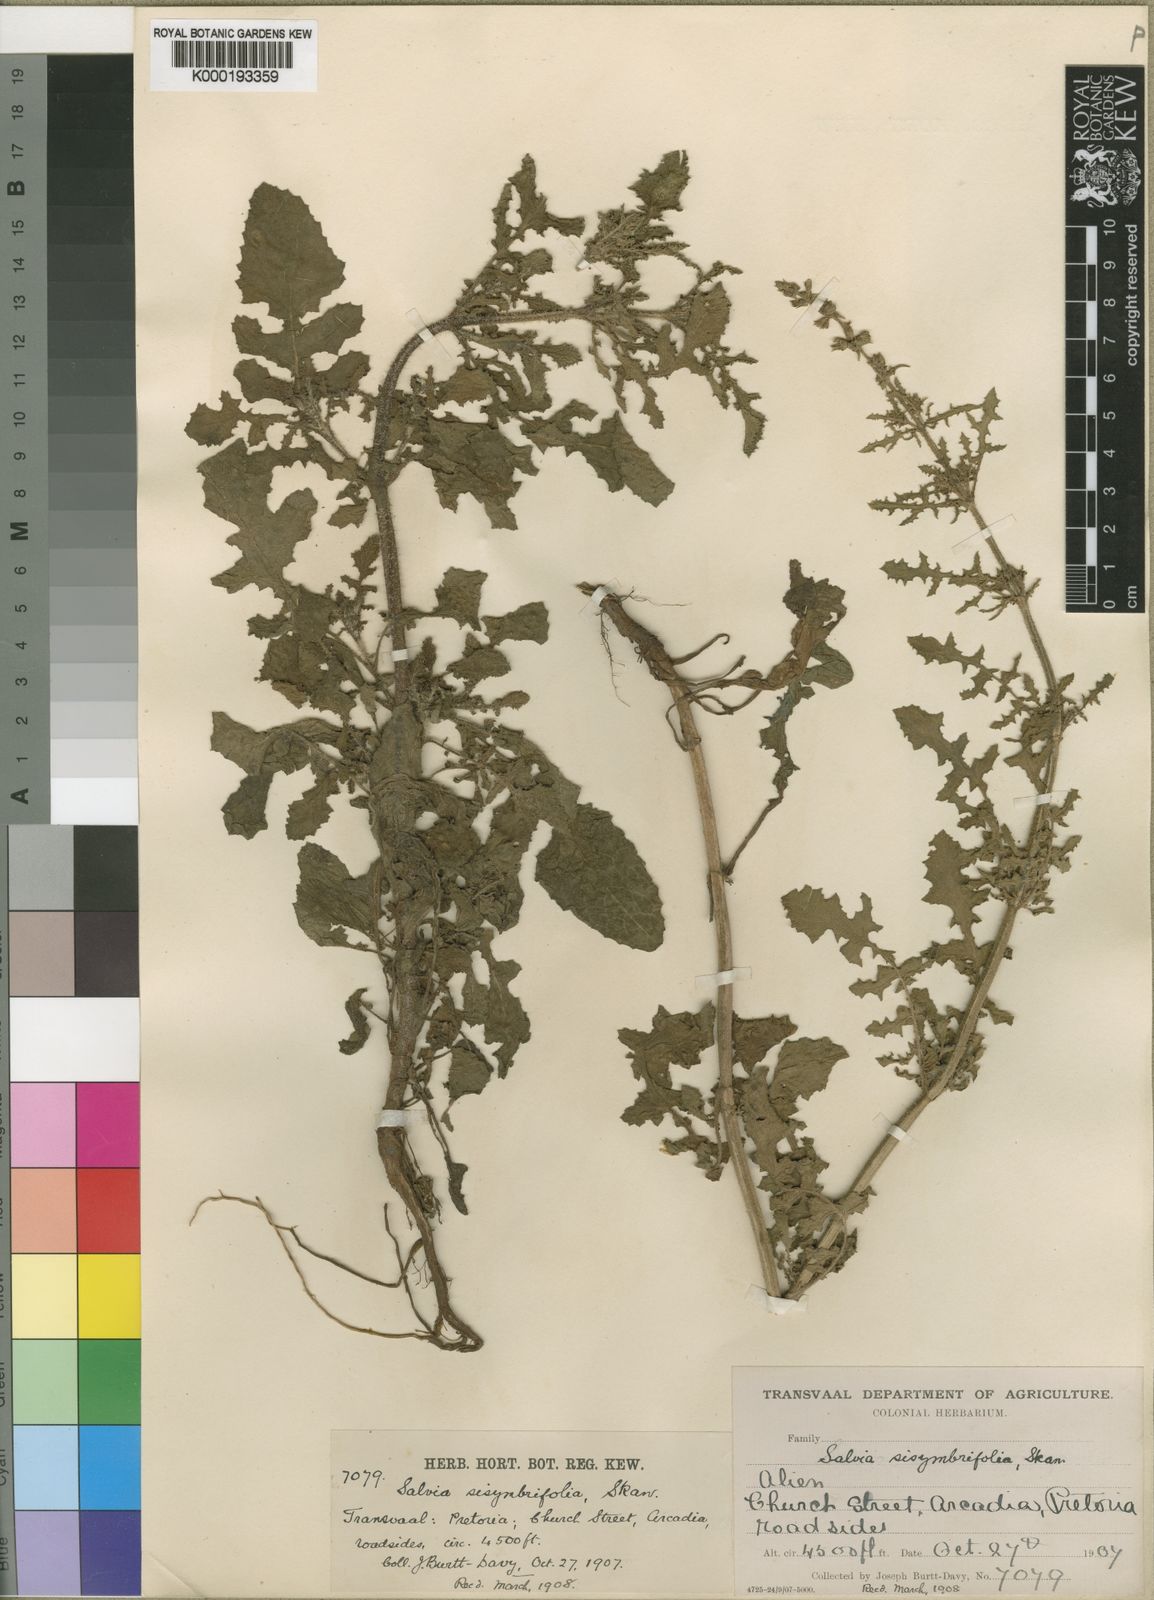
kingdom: Plantae
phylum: Tracheophyta
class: Magnoliopsida
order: Lamiales
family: Lamiaceae
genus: Salvia
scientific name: Salvia
